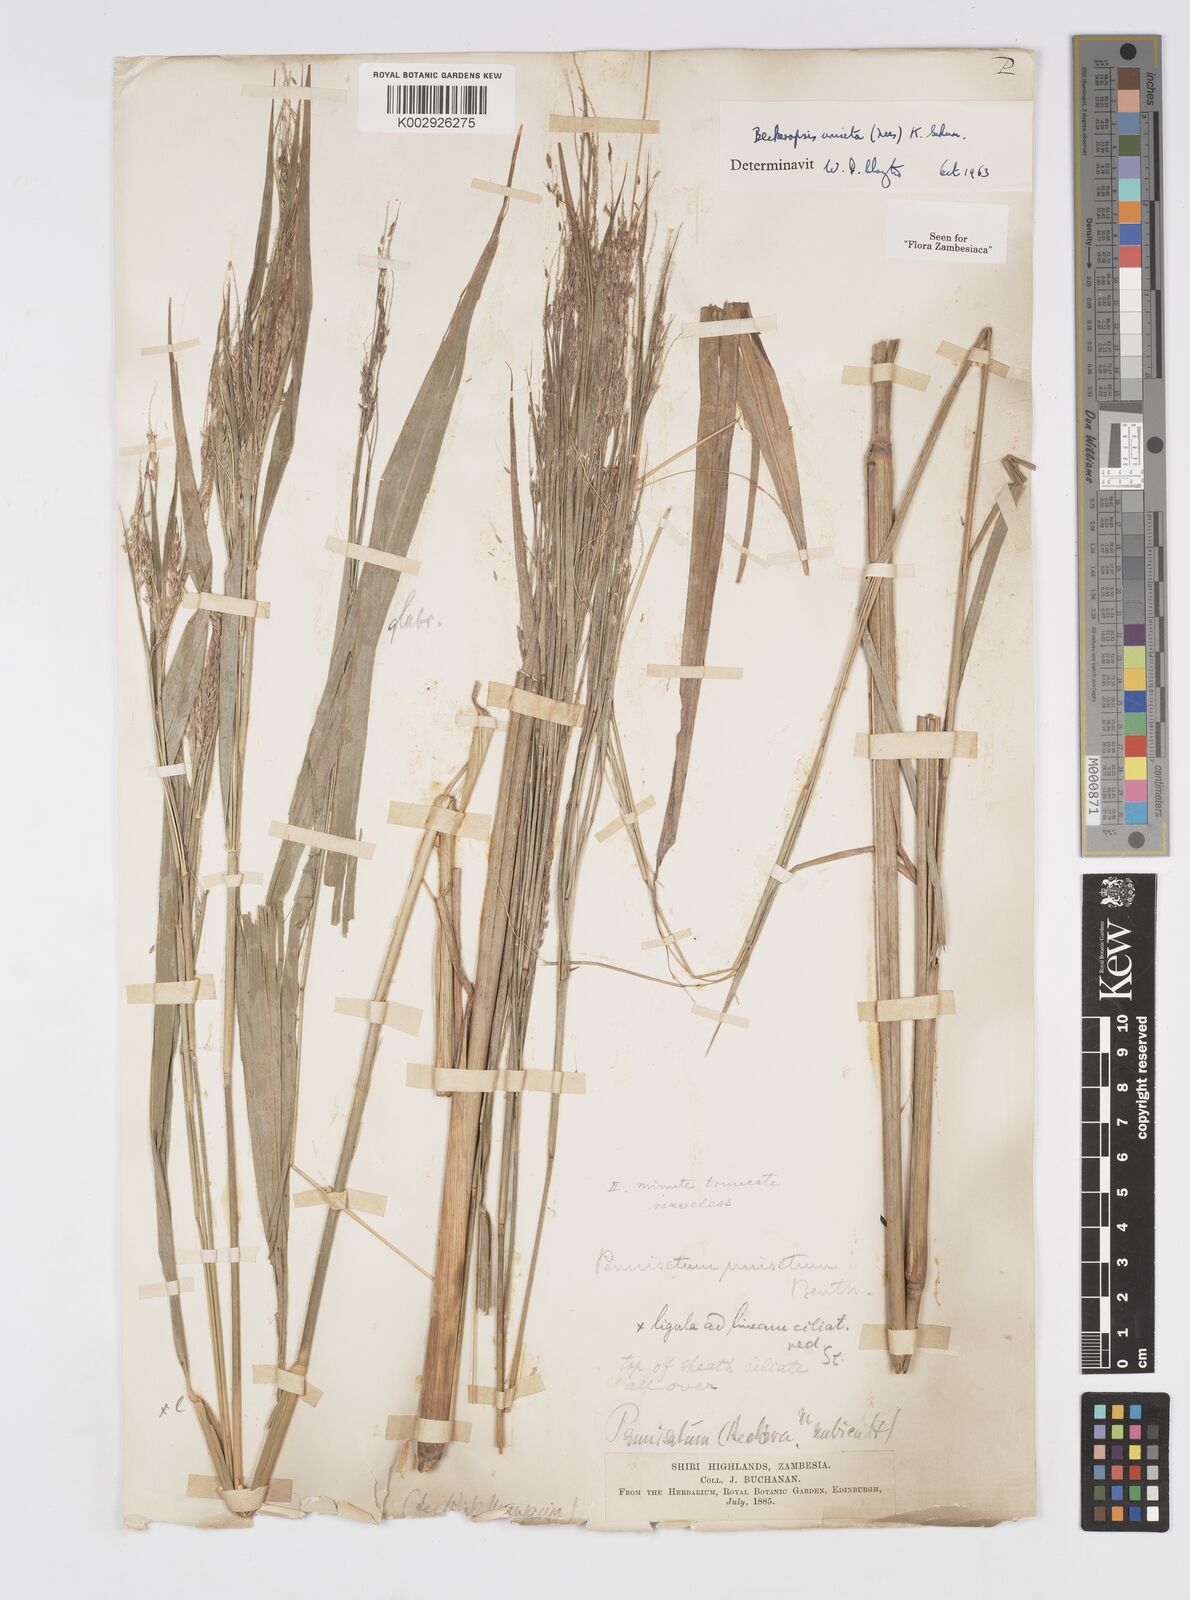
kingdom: Plantae
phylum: Tracheophyta
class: Liliopsida
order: Poales
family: Poaceae
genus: Cenchrus
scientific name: Cenchrus unisetus
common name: Natal grass
